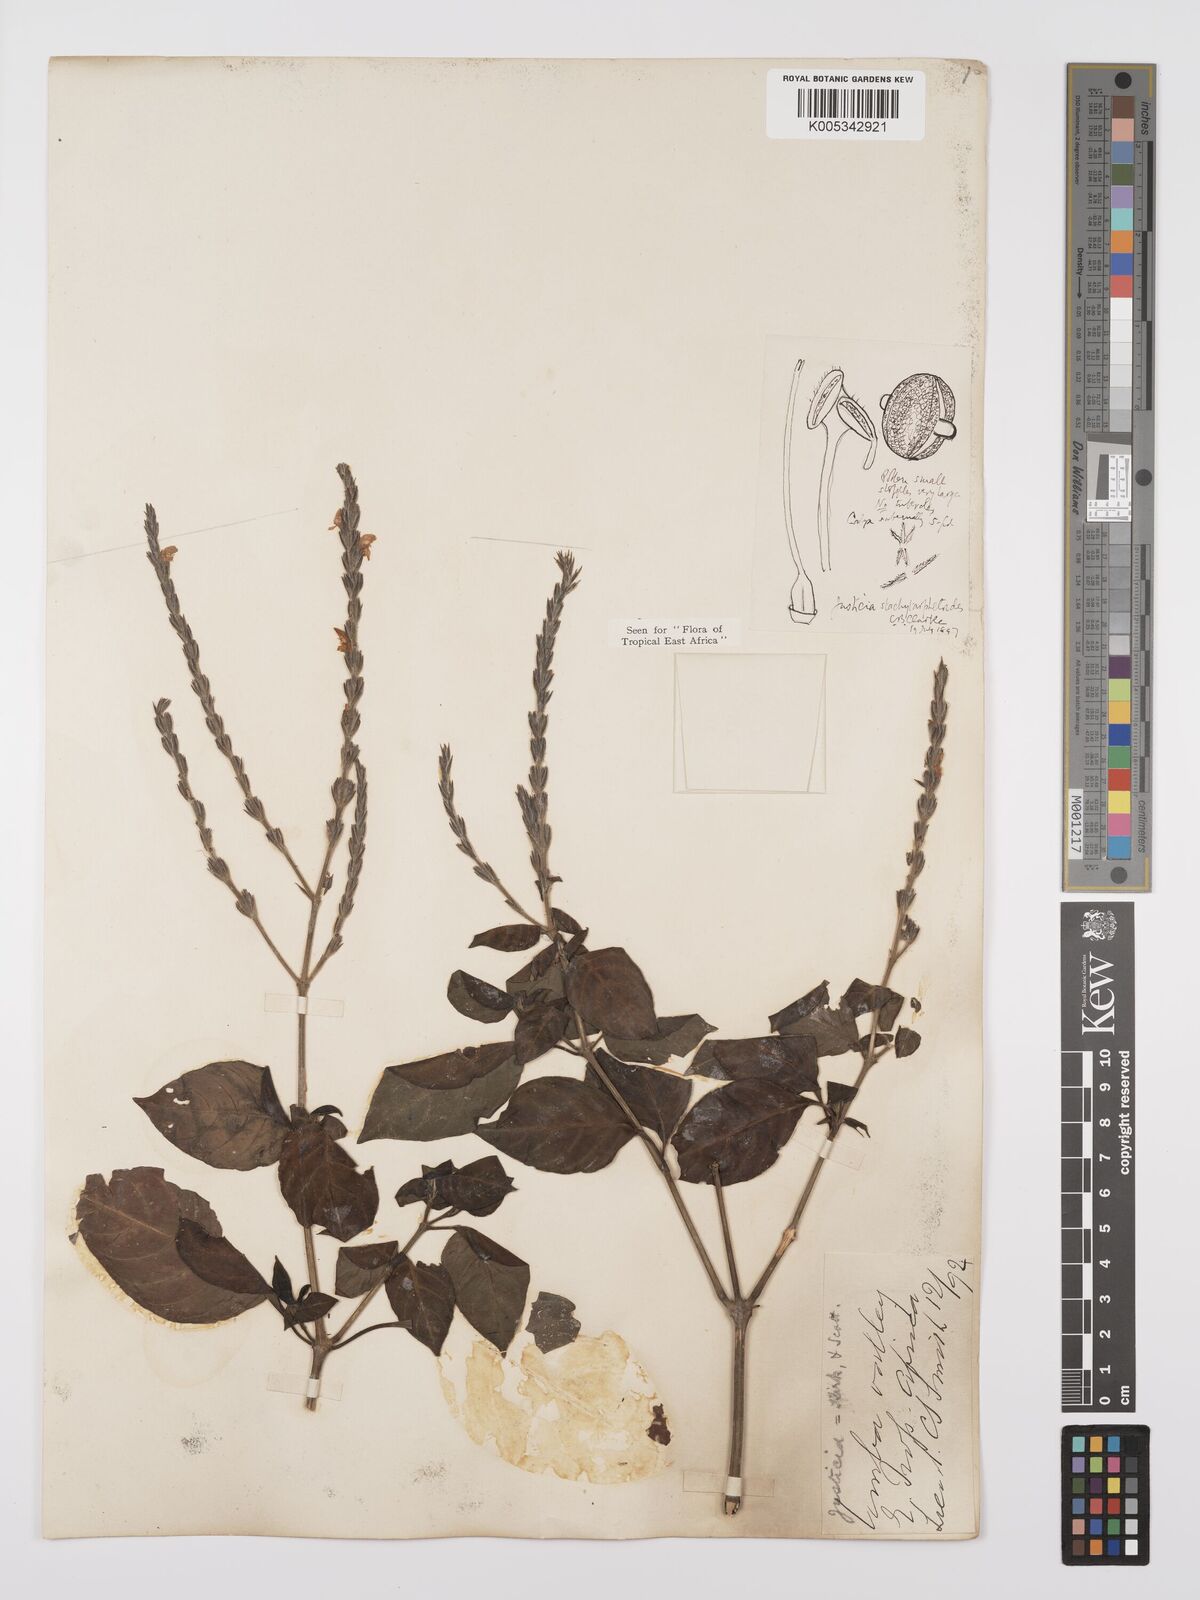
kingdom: Plantae
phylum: Tracheophyta
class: Magnoliopsida
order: Lamiales
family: Acanthaceae
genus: Justicia
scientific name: Justicia stachytarphetoides
